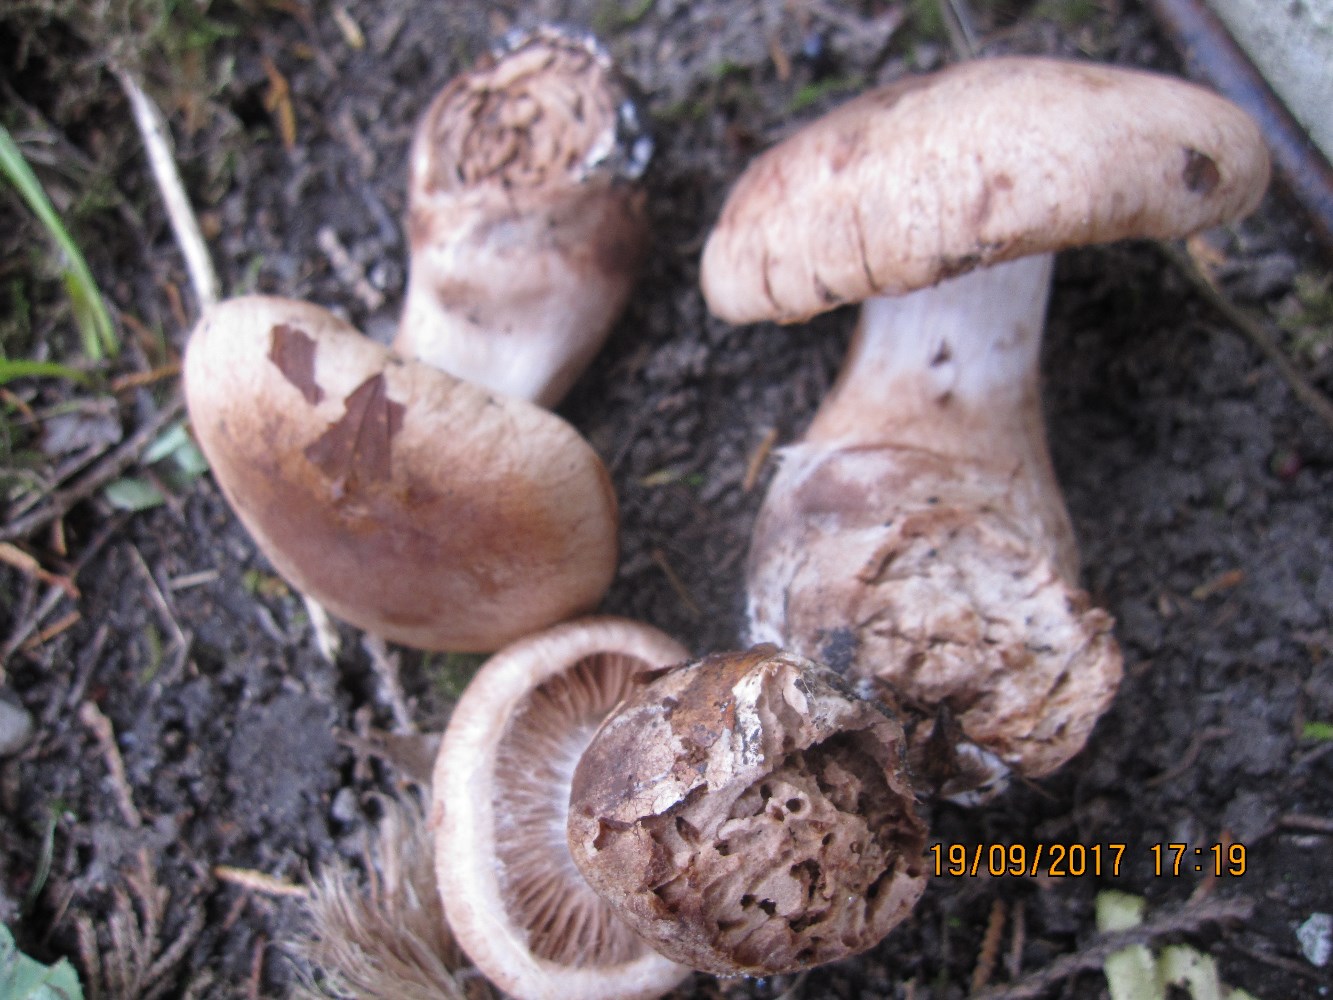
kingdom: Fungi
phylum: Basidiomycota
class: Agaricomycetes
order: Agaricales
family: Cortinariaceae
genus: Cortinarius
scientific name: Cortinarius
